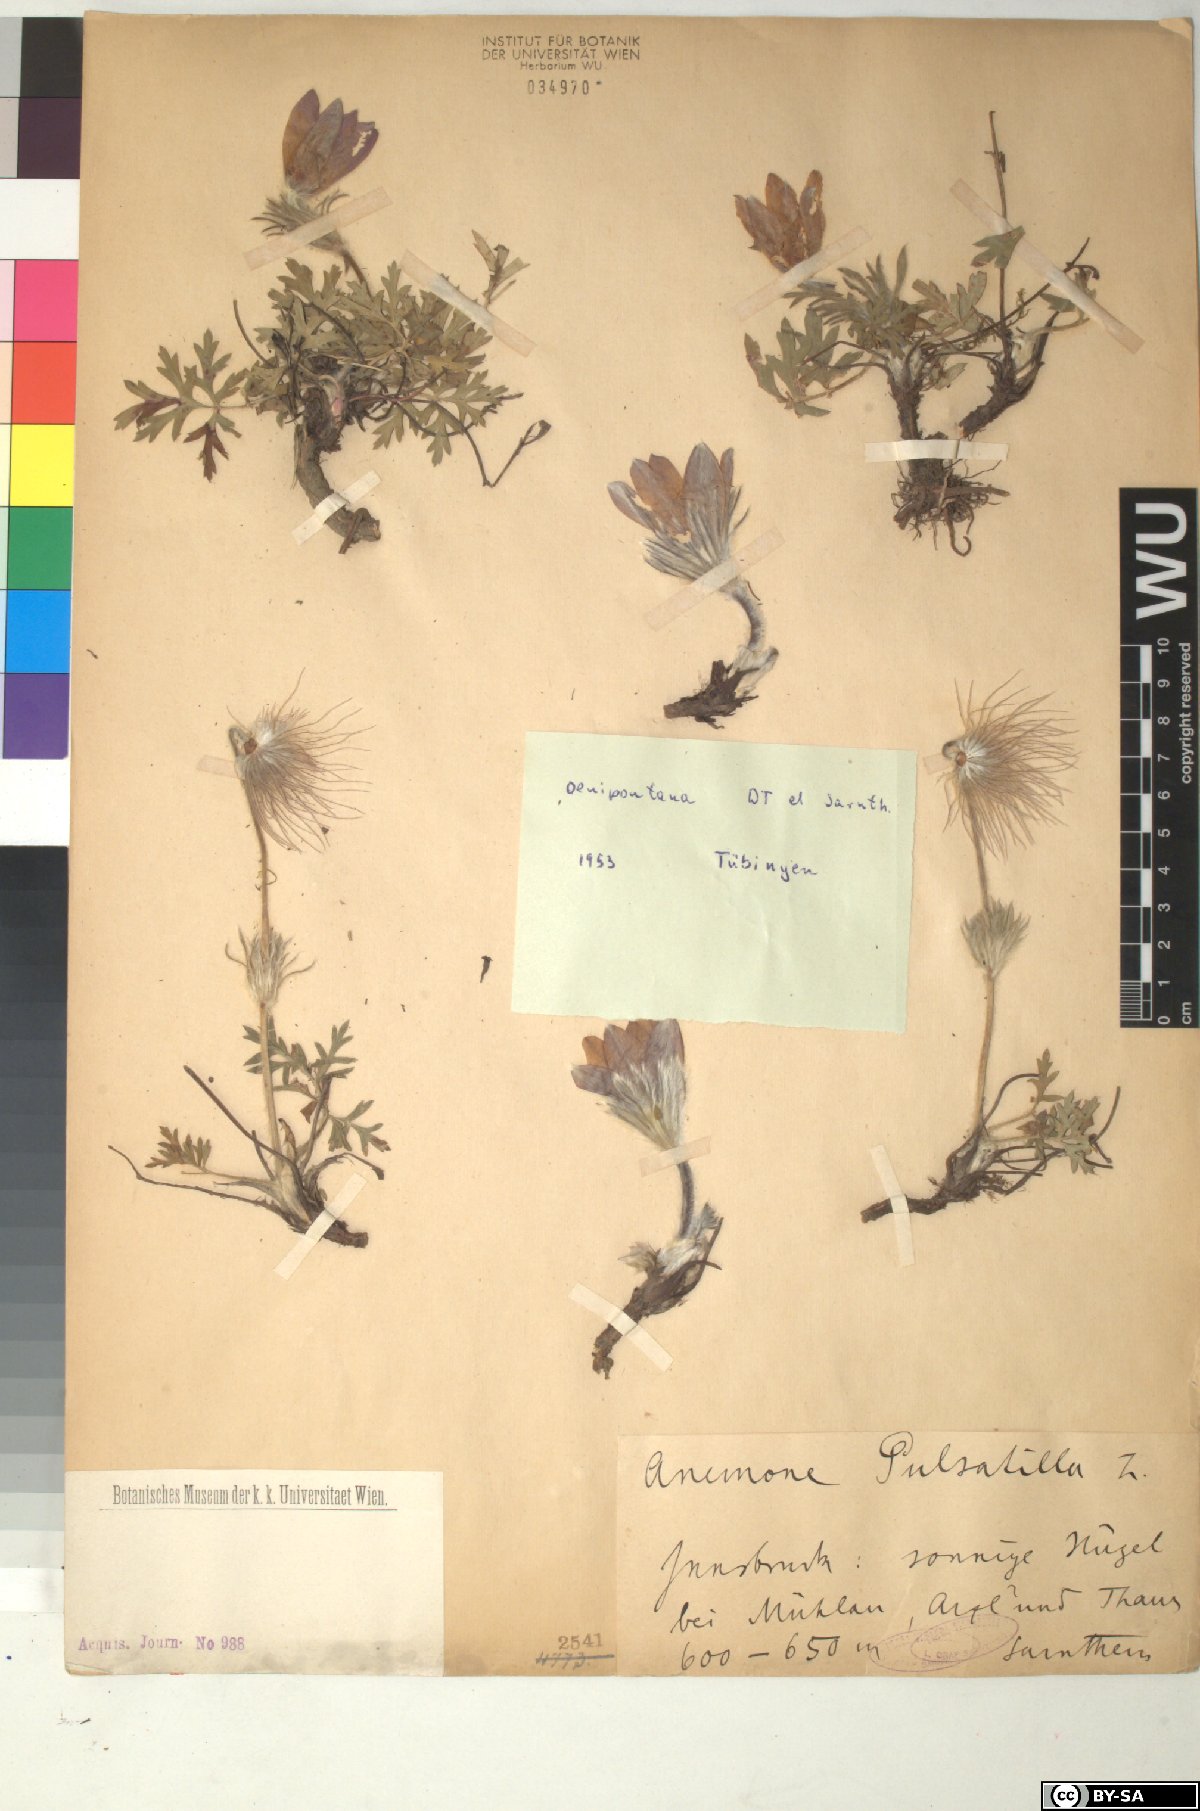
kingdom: Plantae
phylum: Tracheophyta
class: Magnoliopsida
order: Ranunculales
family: Ranunculaceae
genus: Pulsatilla
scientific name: Pulsatilla vulgaris
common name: Pasqueflower
